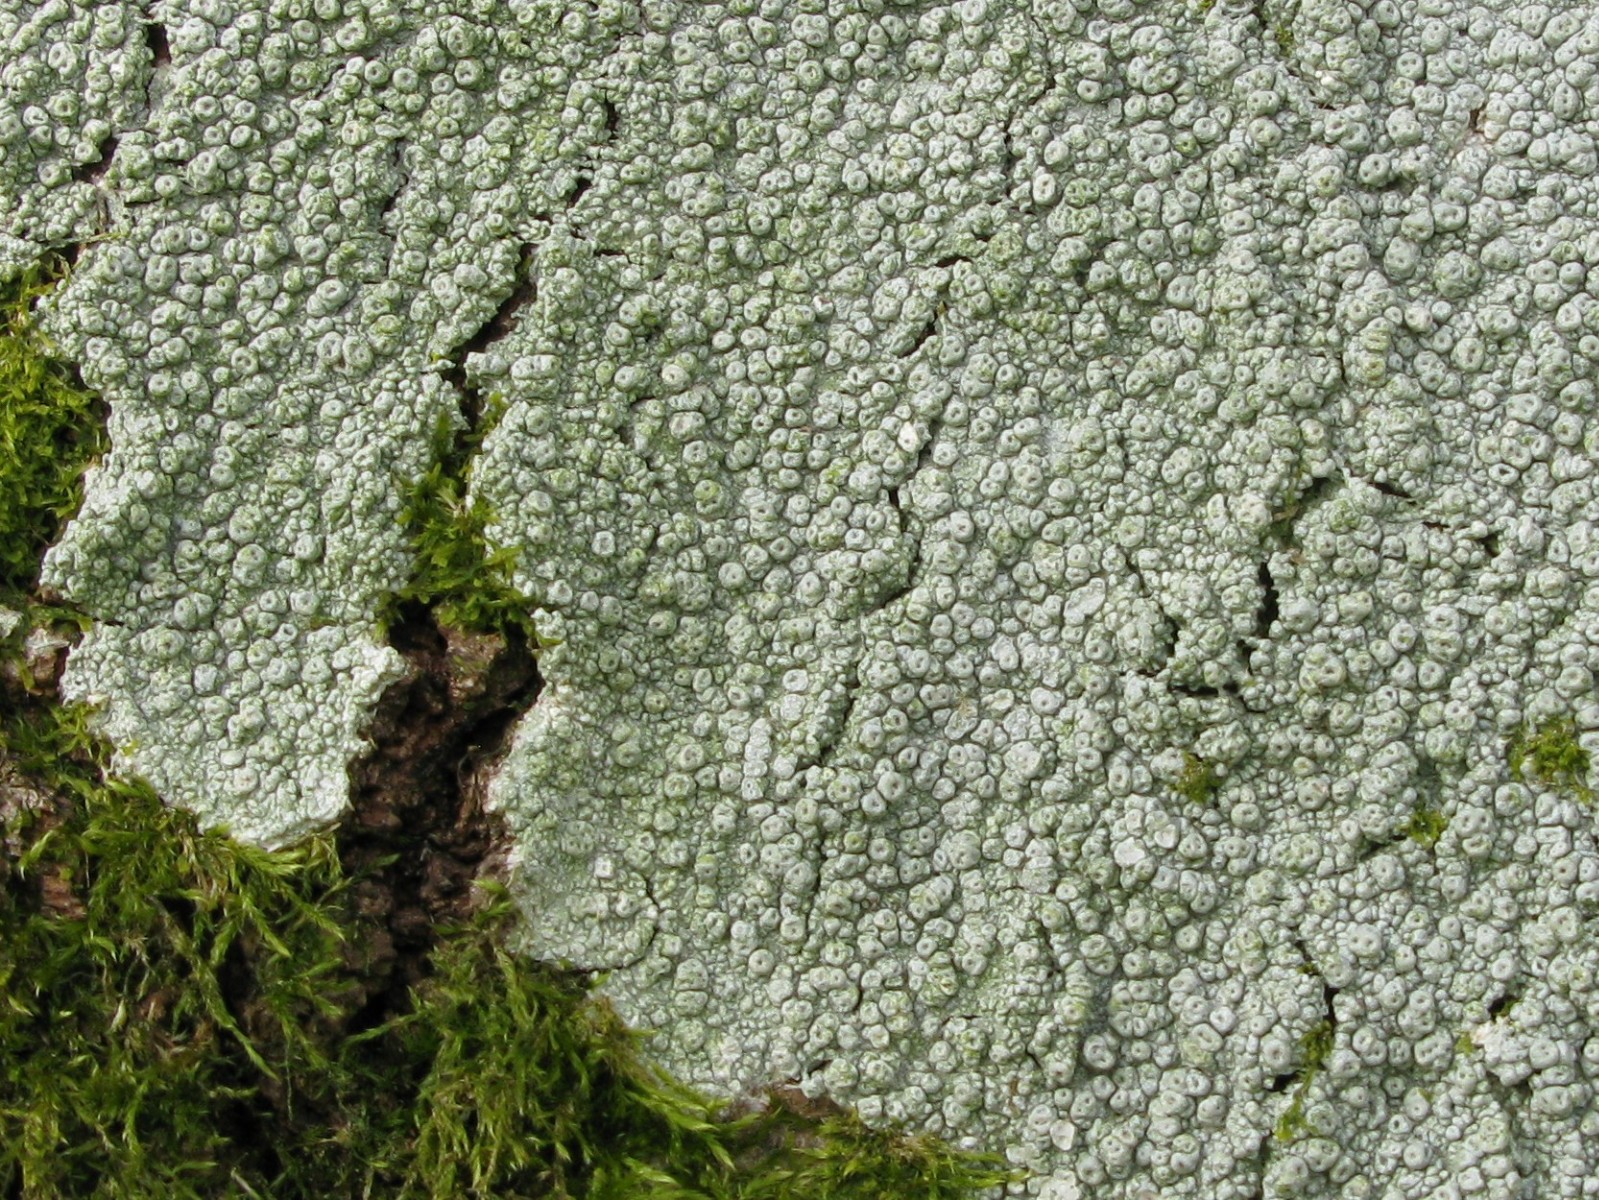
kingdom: Fungi
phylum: Ascomycota
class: Lecanoromycetes
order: Pertusariales
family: Pertusariaceae
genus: Pertusaria
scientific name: Pertusaria hymenea
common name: åben prikvortelav
